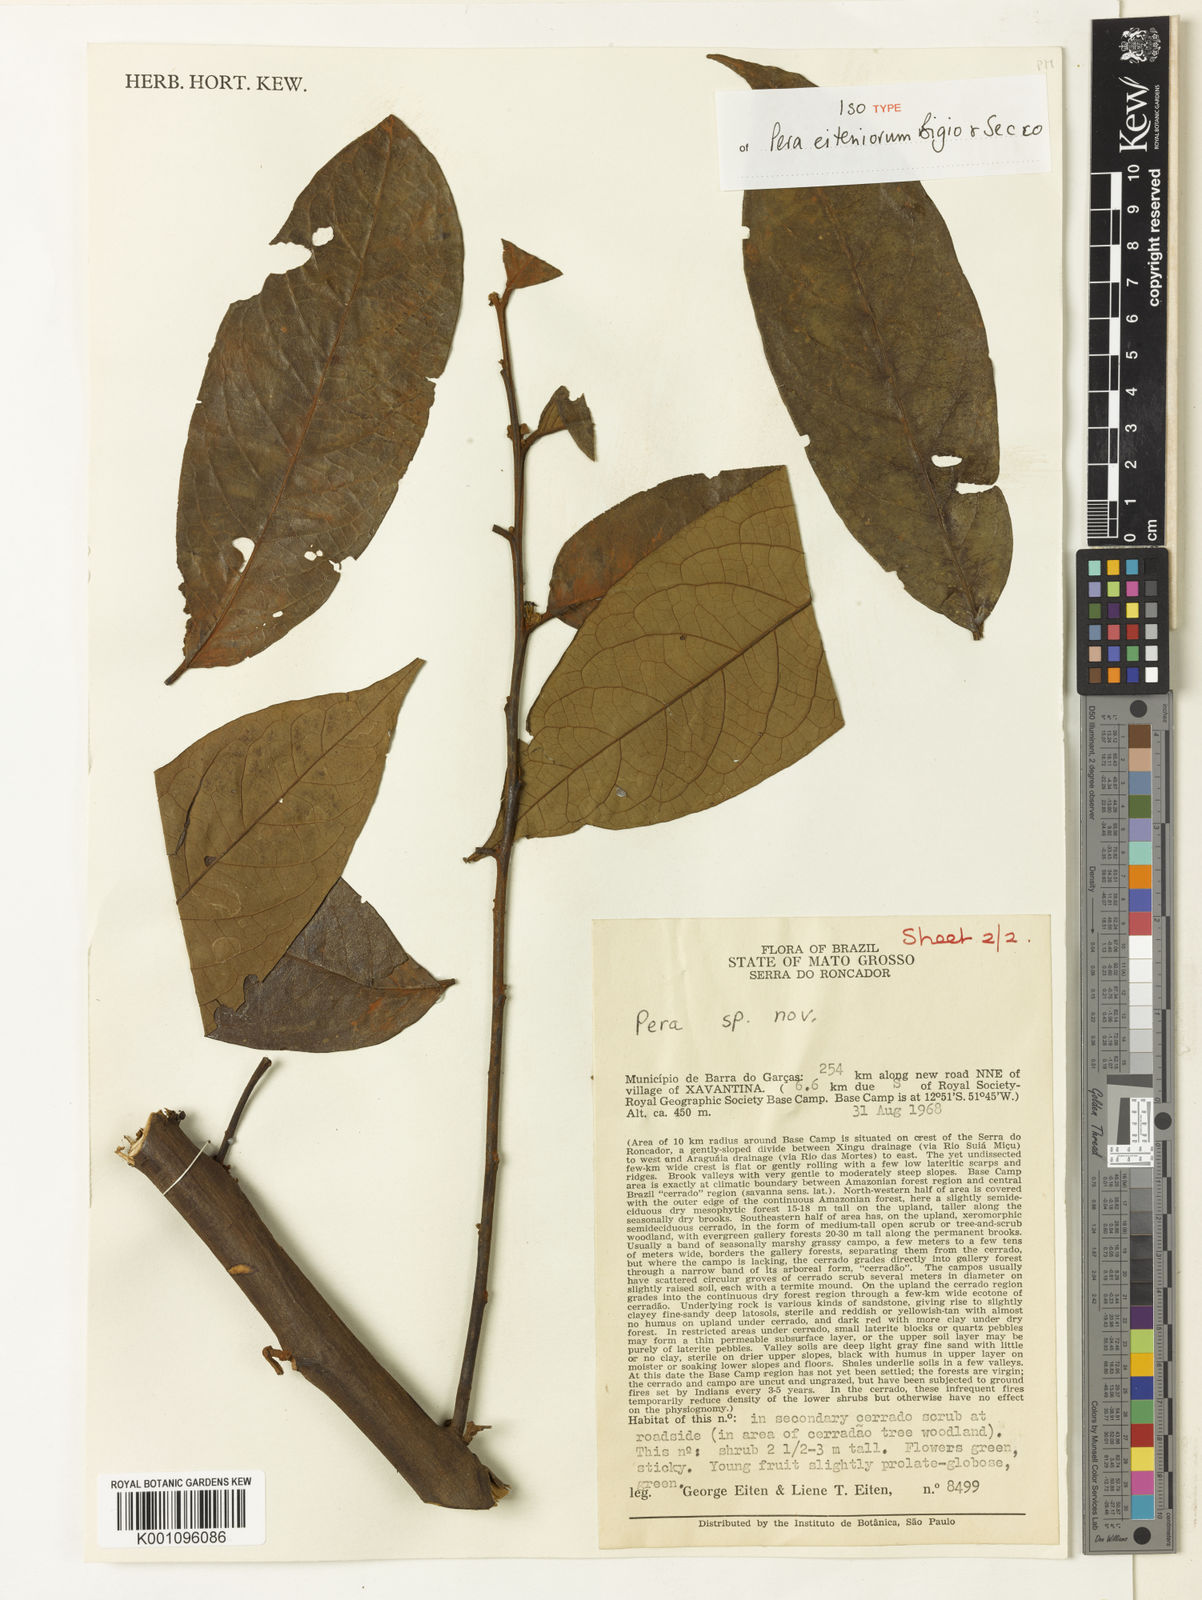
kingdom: Plantae
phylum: Tracheophyta
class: Magnoliopsida
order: Malpighiales
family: Peraceae
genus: Pera
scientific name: Pera eiteniorum
